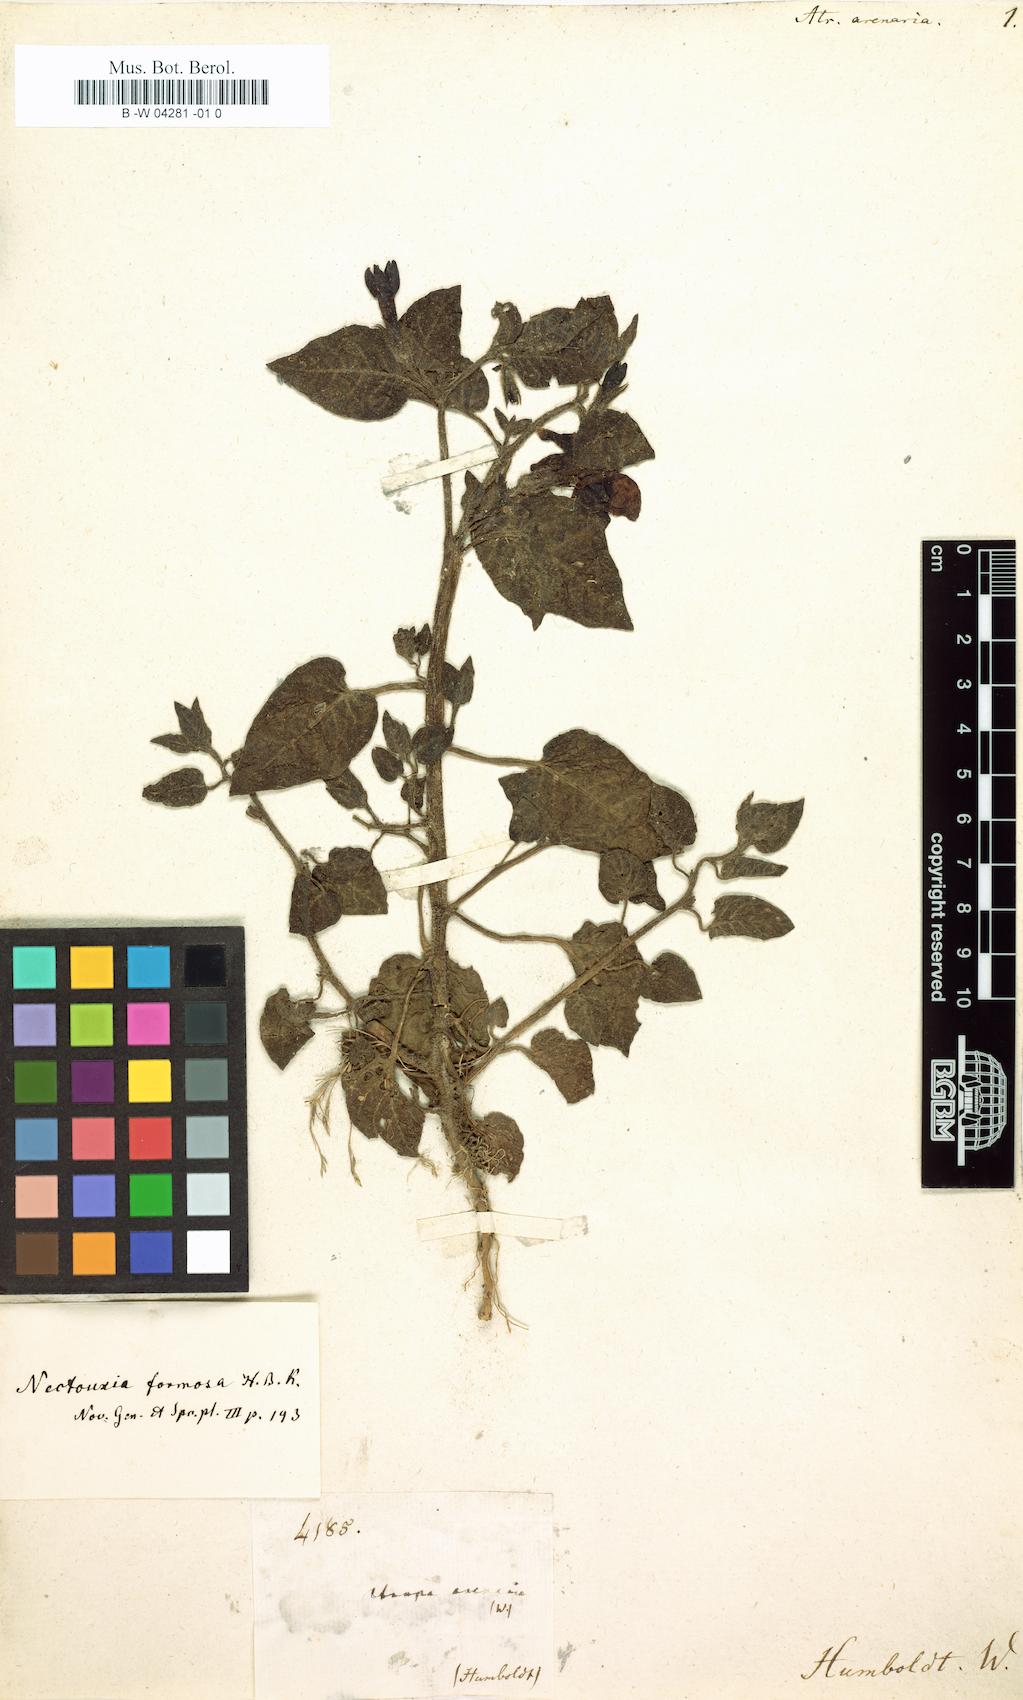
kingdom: Plantae
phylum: Tracheophyta
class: Magnoliopsida
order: Solanales
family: Solanaceae
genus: Nectouxia
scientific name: Nectouxia formosa
